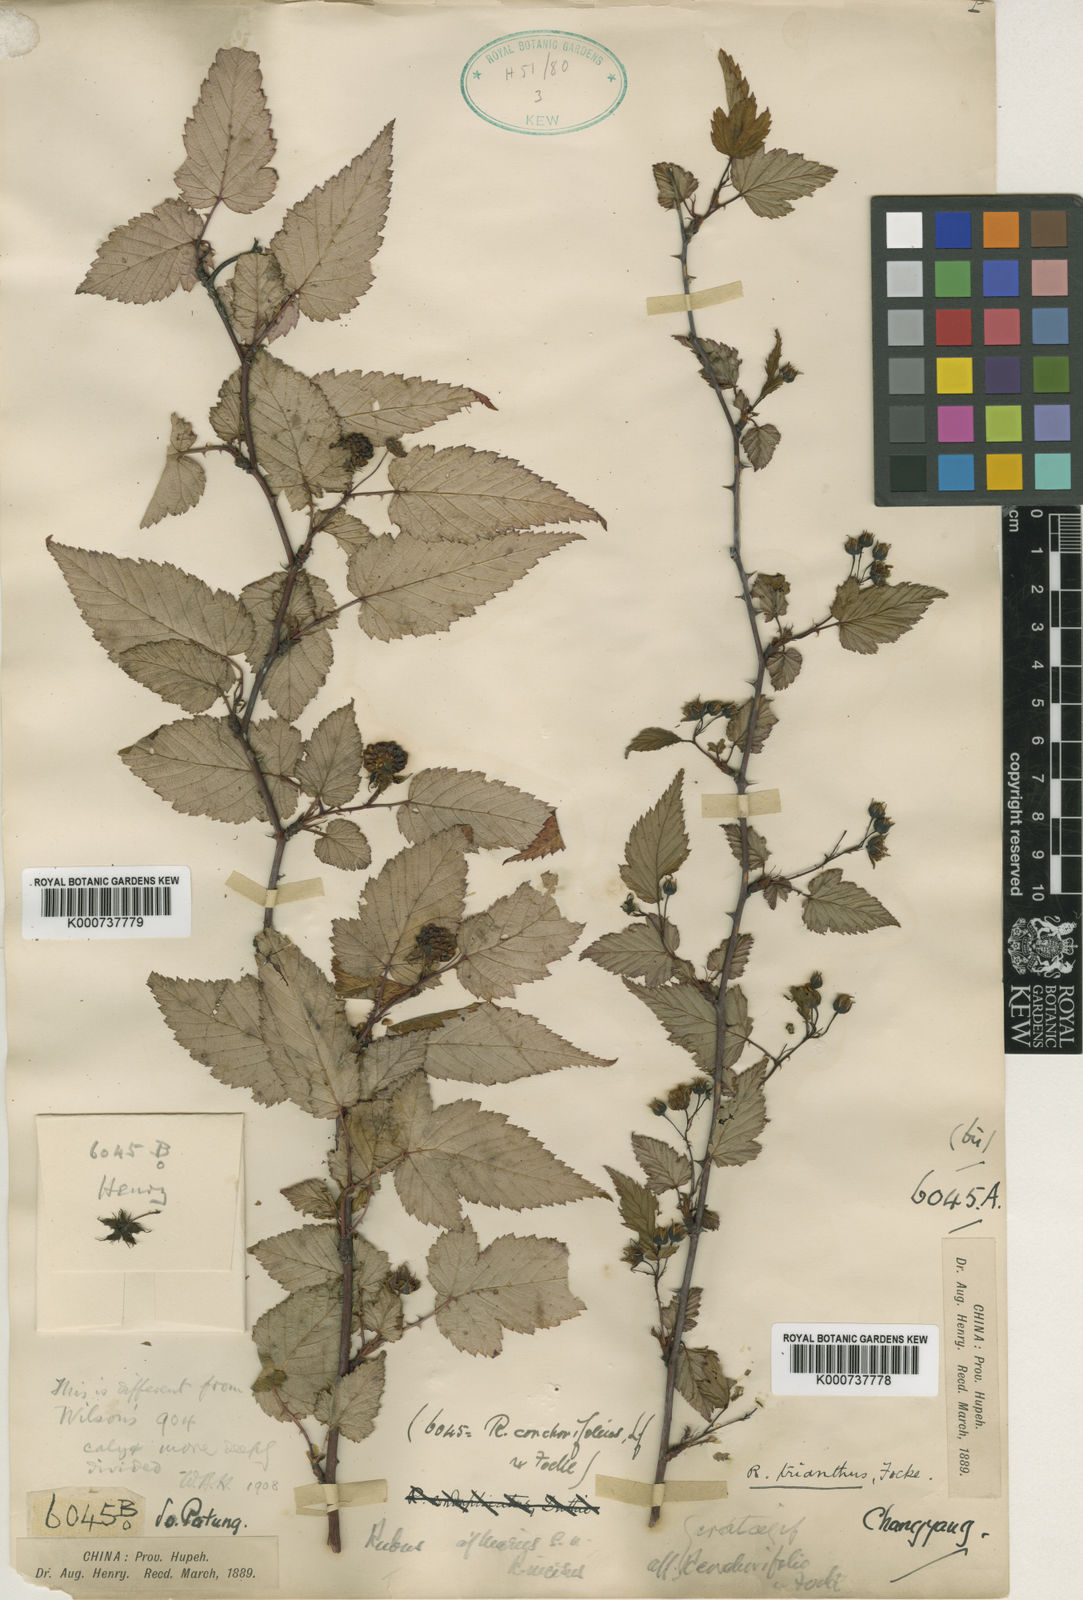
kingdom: Plantae
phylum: Tracheophyta
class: Magnoliopsida
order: Rosales
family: Rosaceae
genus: Rubus
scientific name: Rubus subcrataegifolius
